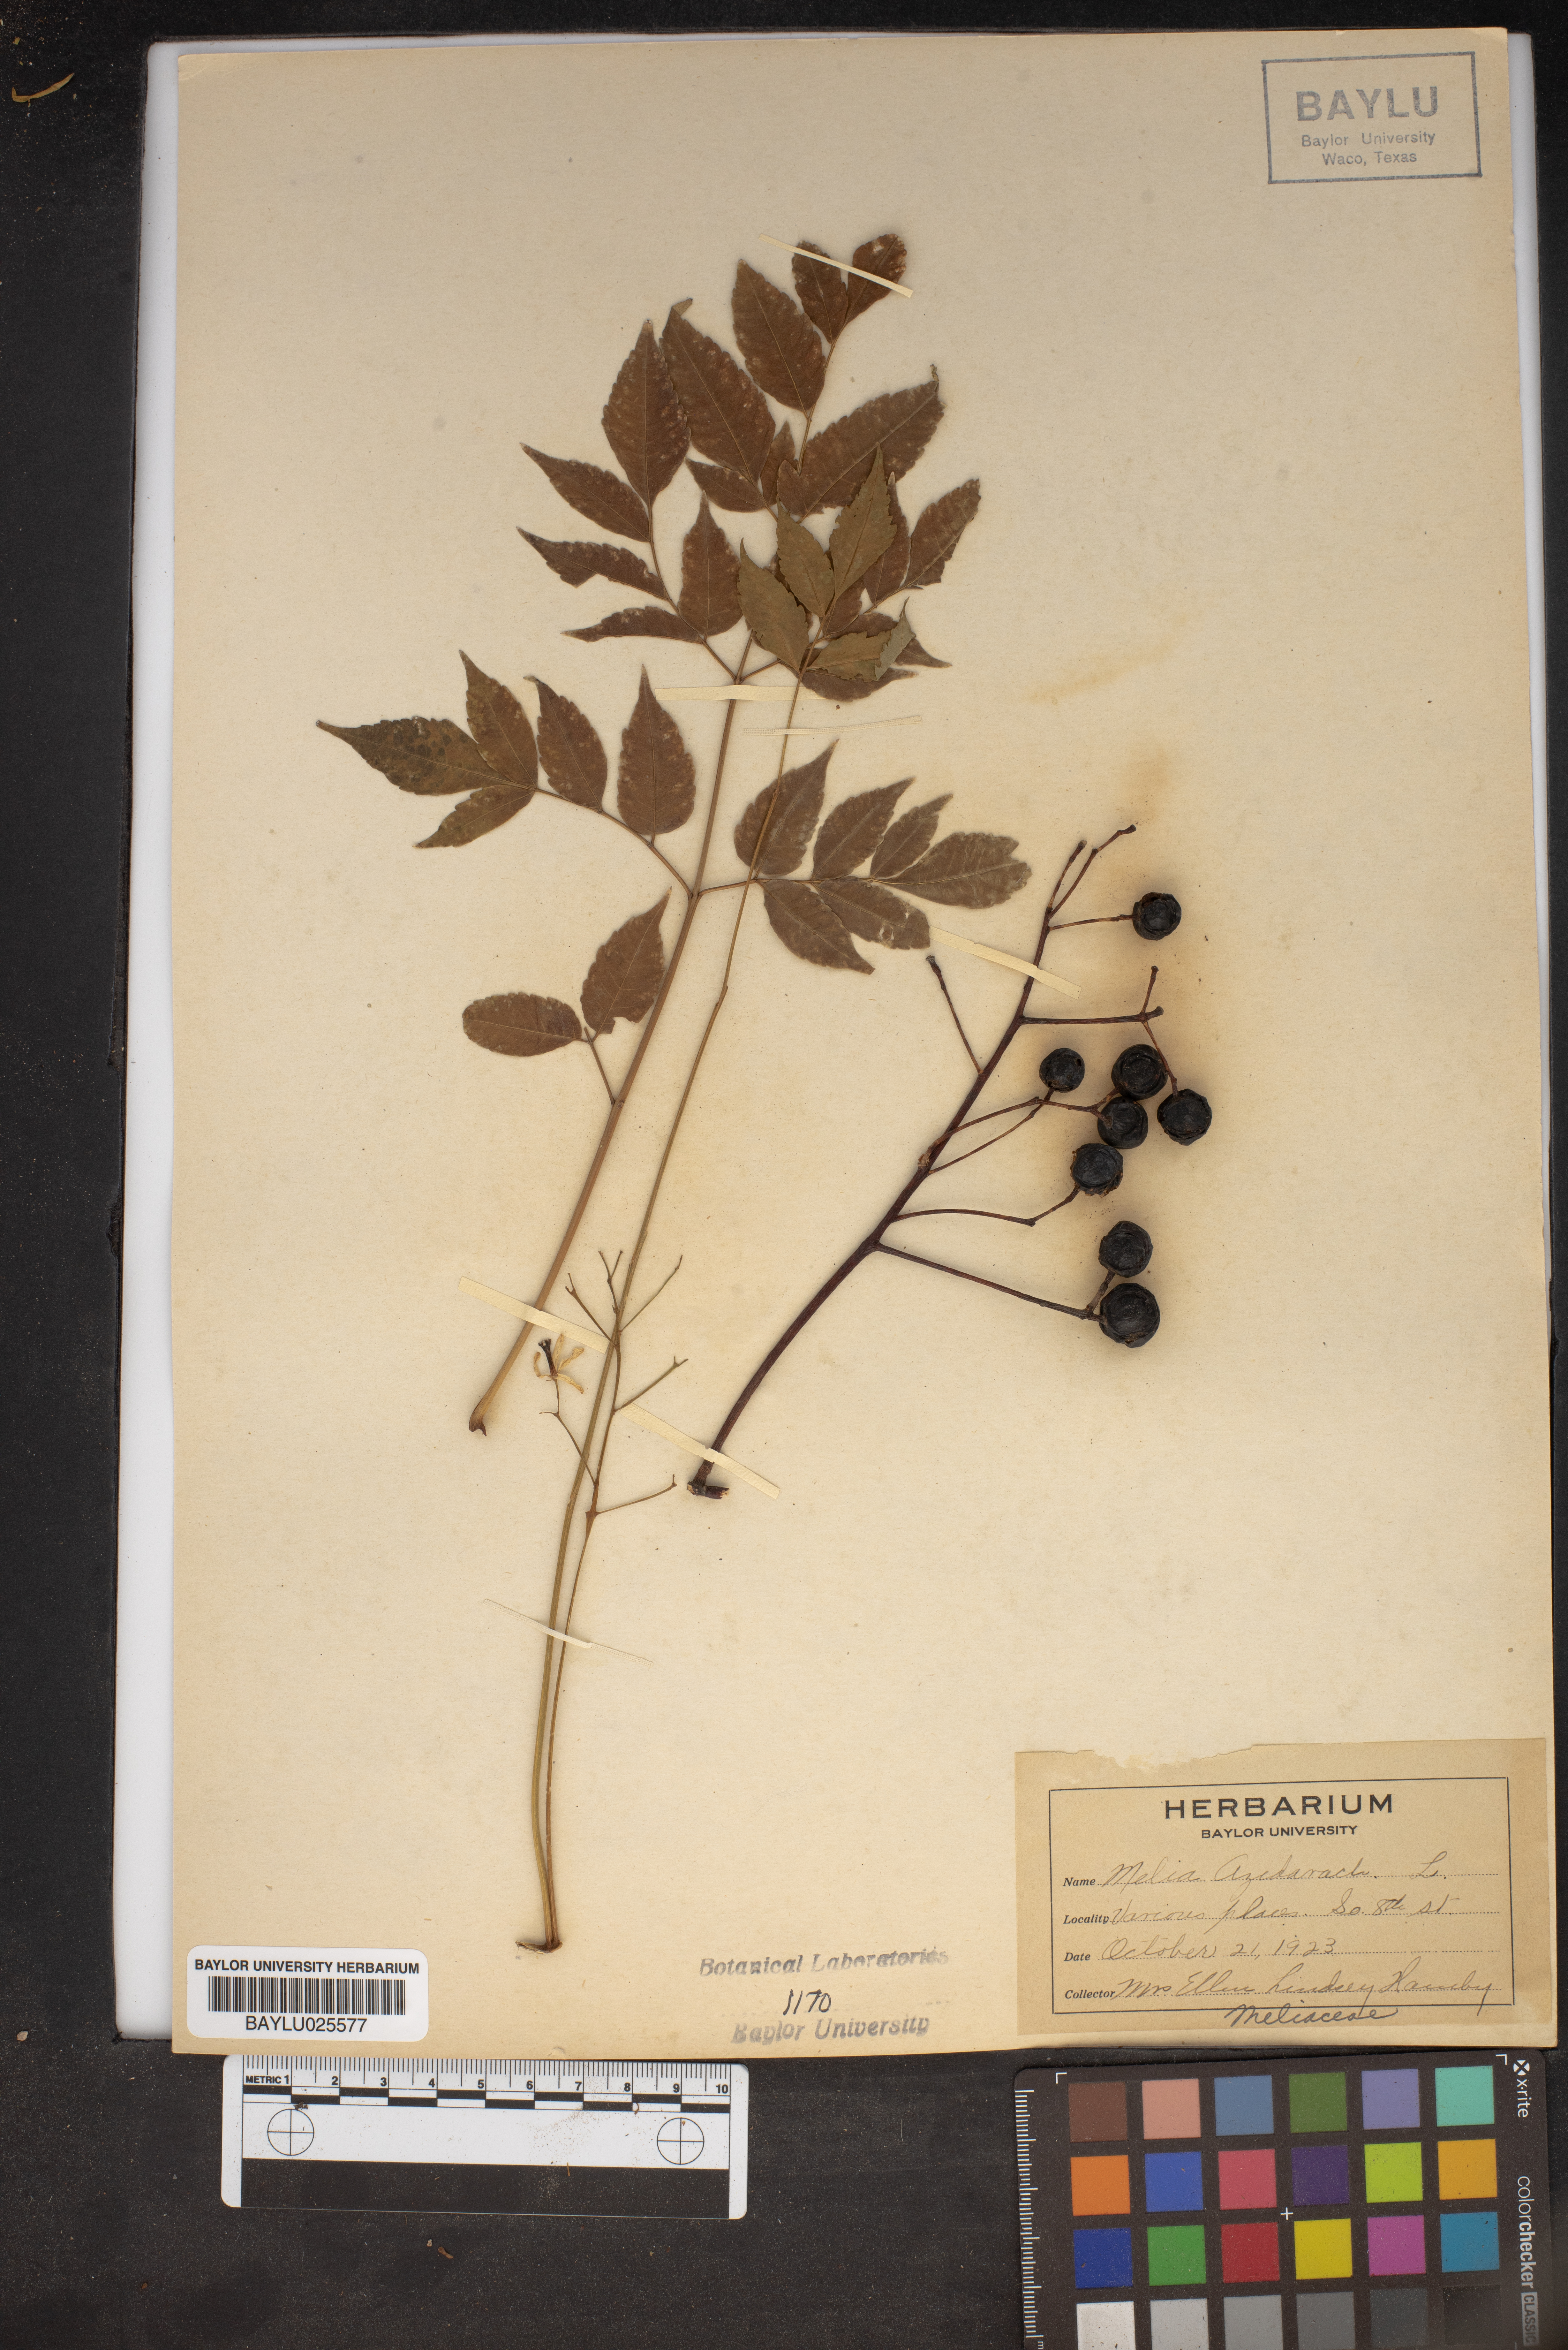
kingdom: Plantae
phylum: Tracheophyta
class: Magnoliopsida
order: Sapindales
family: Meliaceae
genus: Melia
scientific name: Melia azedarach
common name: Chinaberrytree
